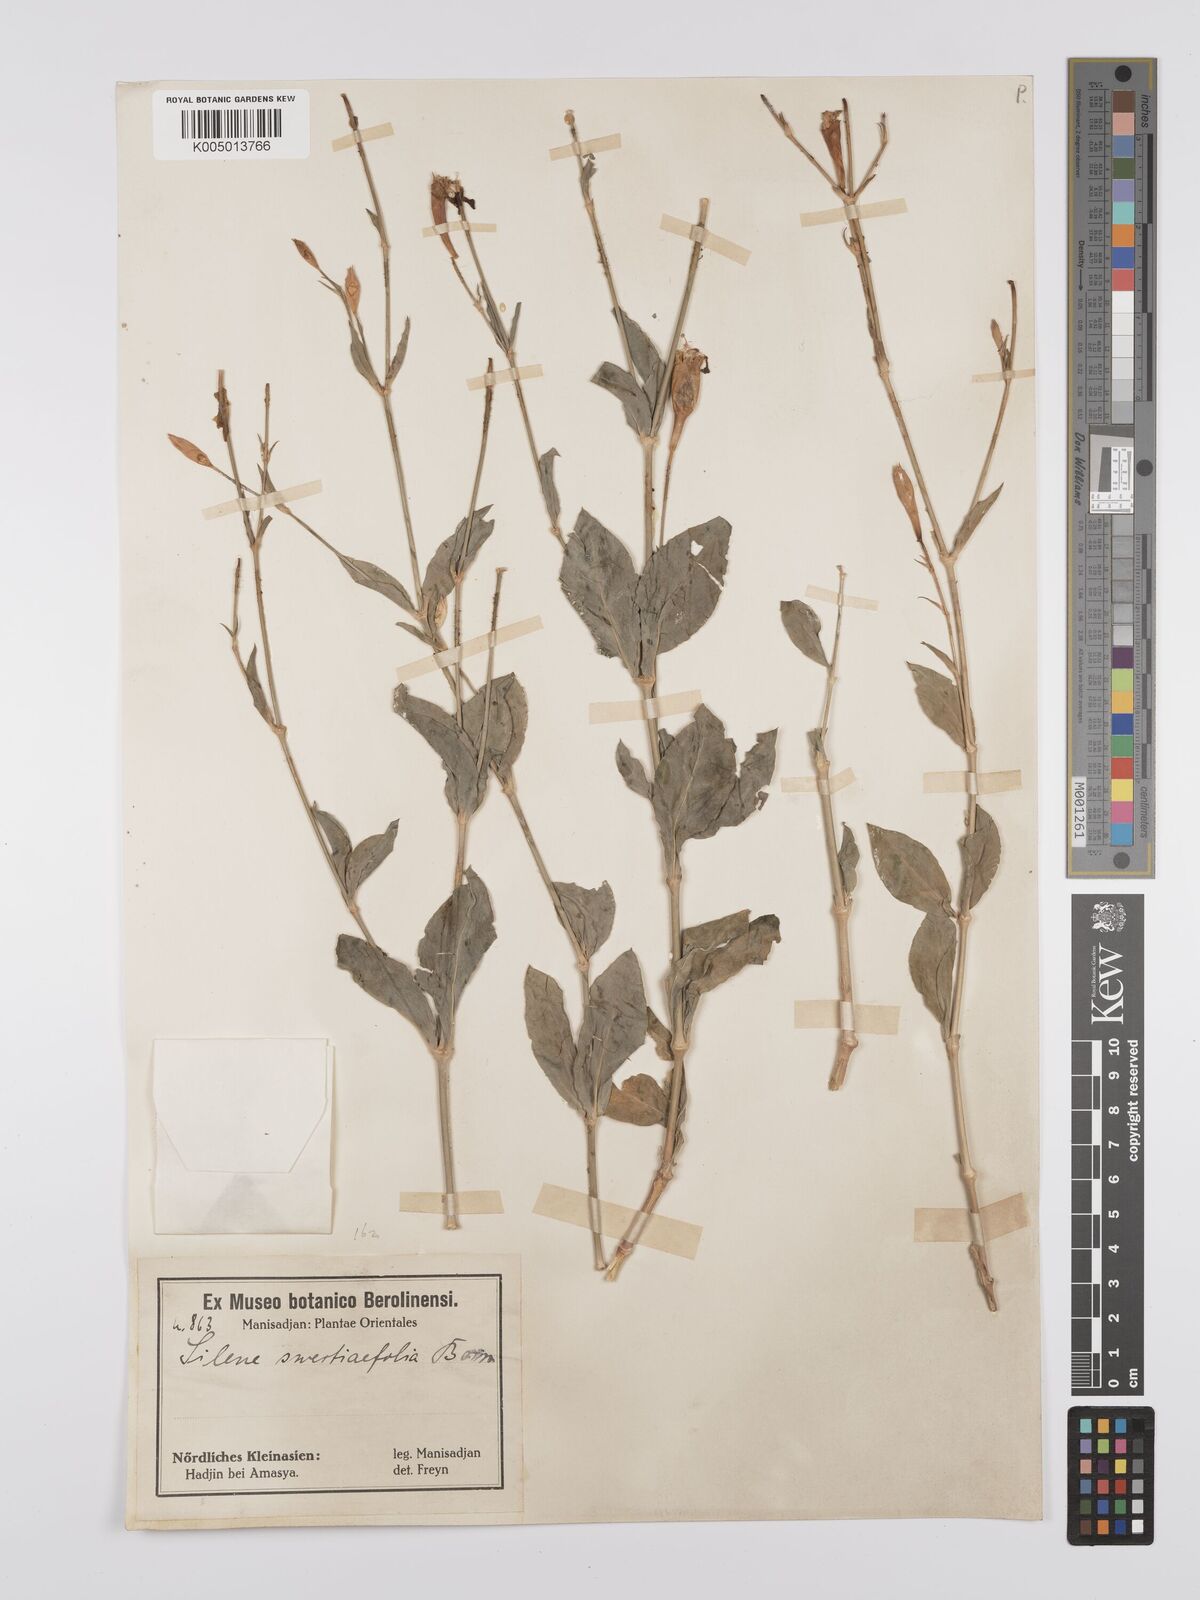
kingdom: Plantae
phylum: Tracheophyta
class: Magnoliopsida
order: Caryophyllales
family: Caryophyllaceae
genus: Silene
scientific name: Silene swertiifolia
